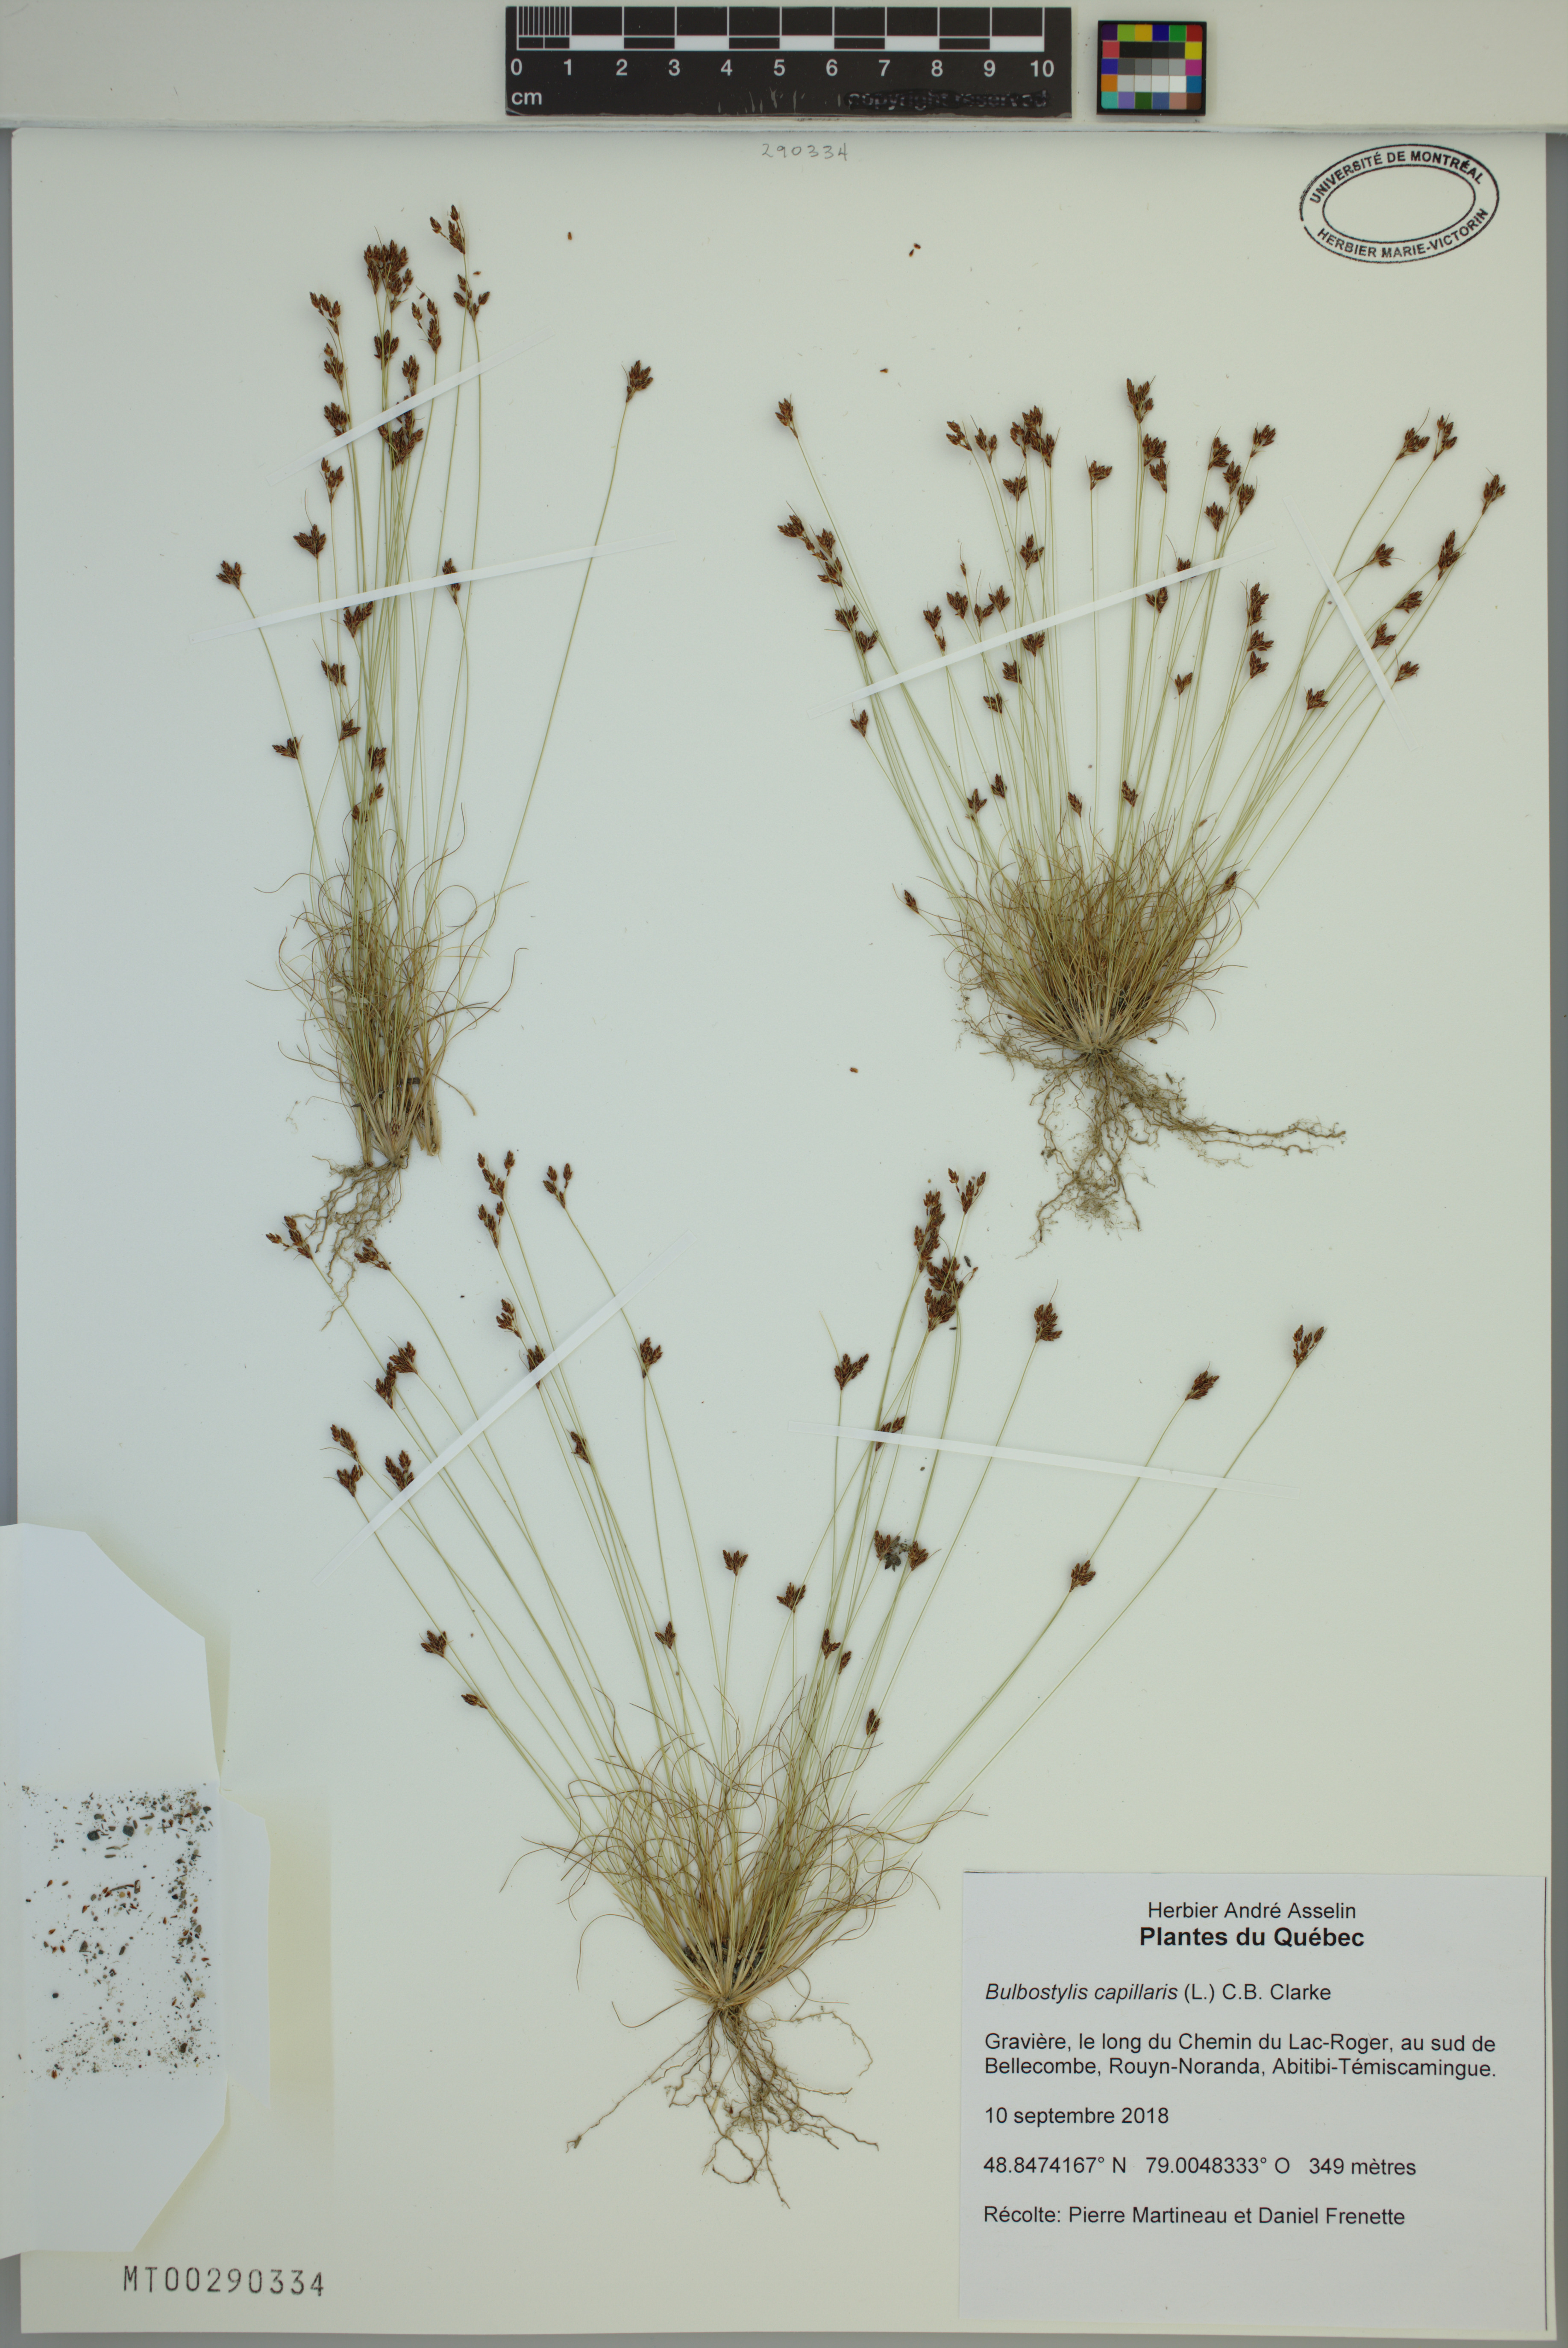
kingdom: Plantae
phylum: Tracheophyta
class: Liliopsida
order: Poales
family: Cyperaceae
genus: Bulbostylis
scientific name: Bulbostylis capillaris
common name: Densetuft hairsedge
